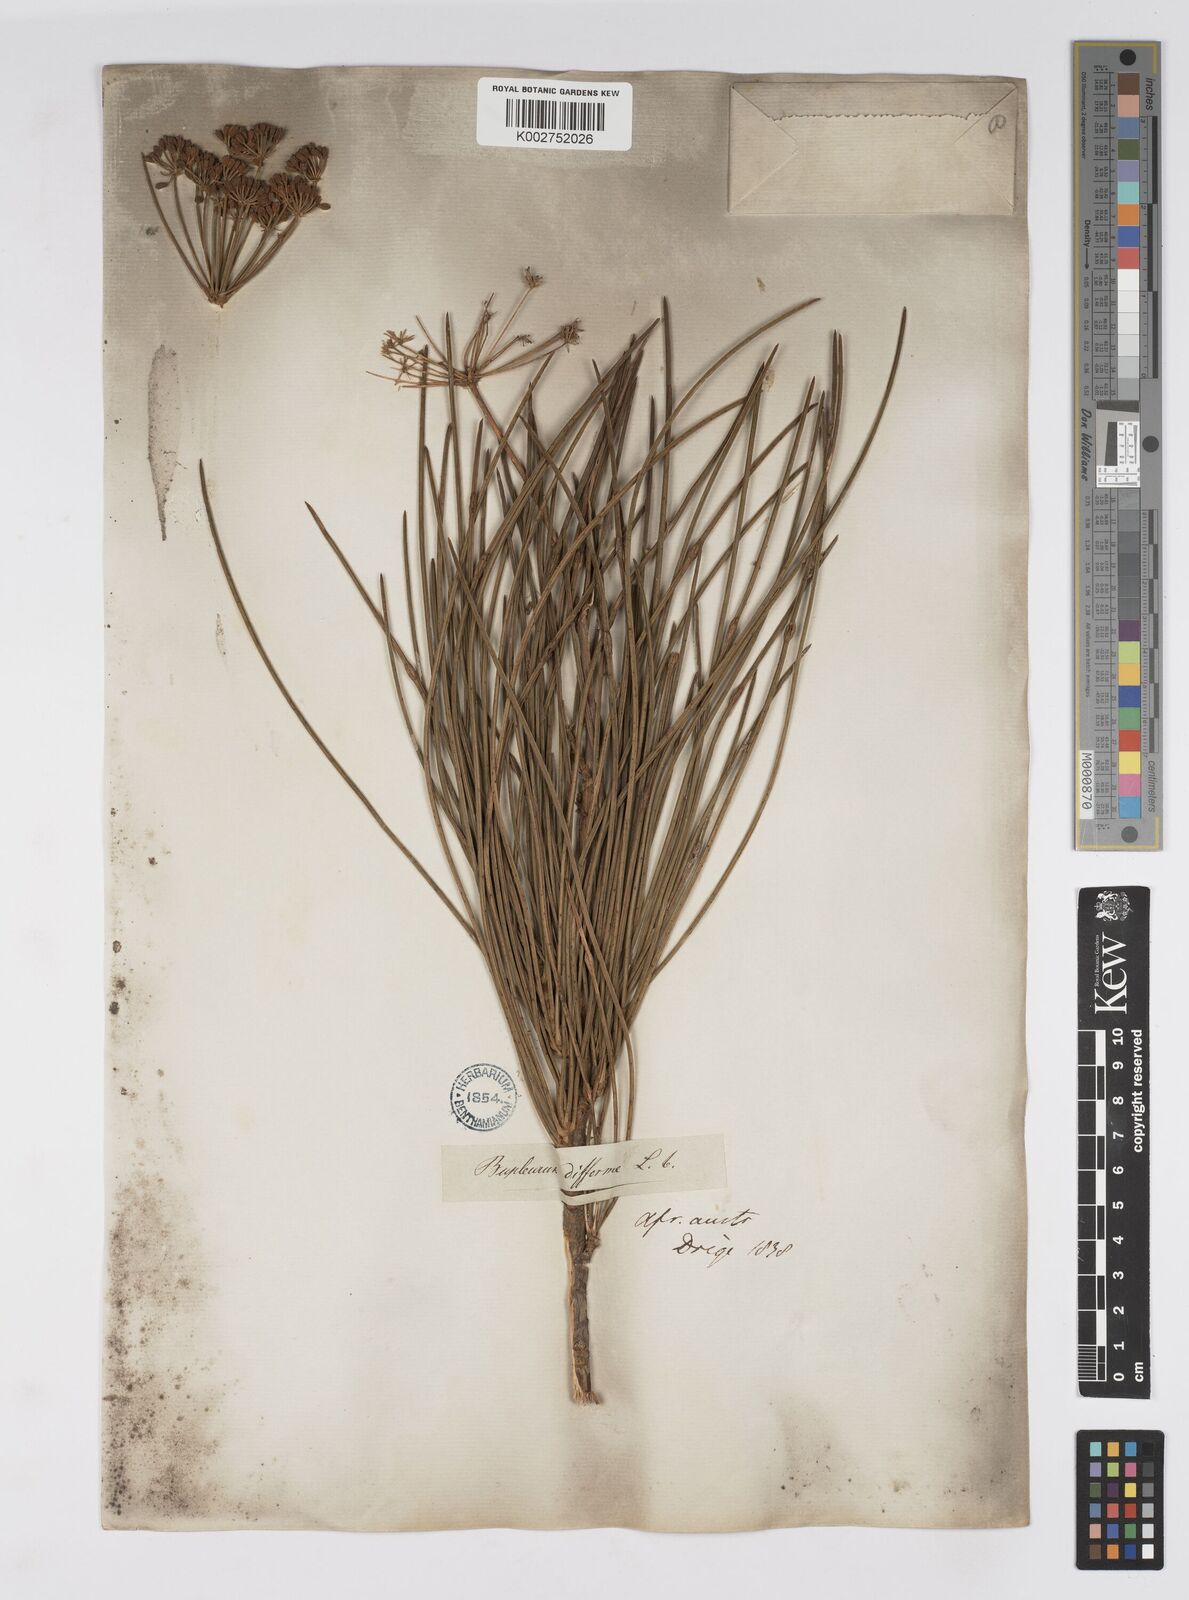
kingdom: Plantae
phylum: Tracheophyta
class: Magnoliopsida
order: Apiales
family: Apiaceae
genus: Anginon
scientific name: Anginon difforme
